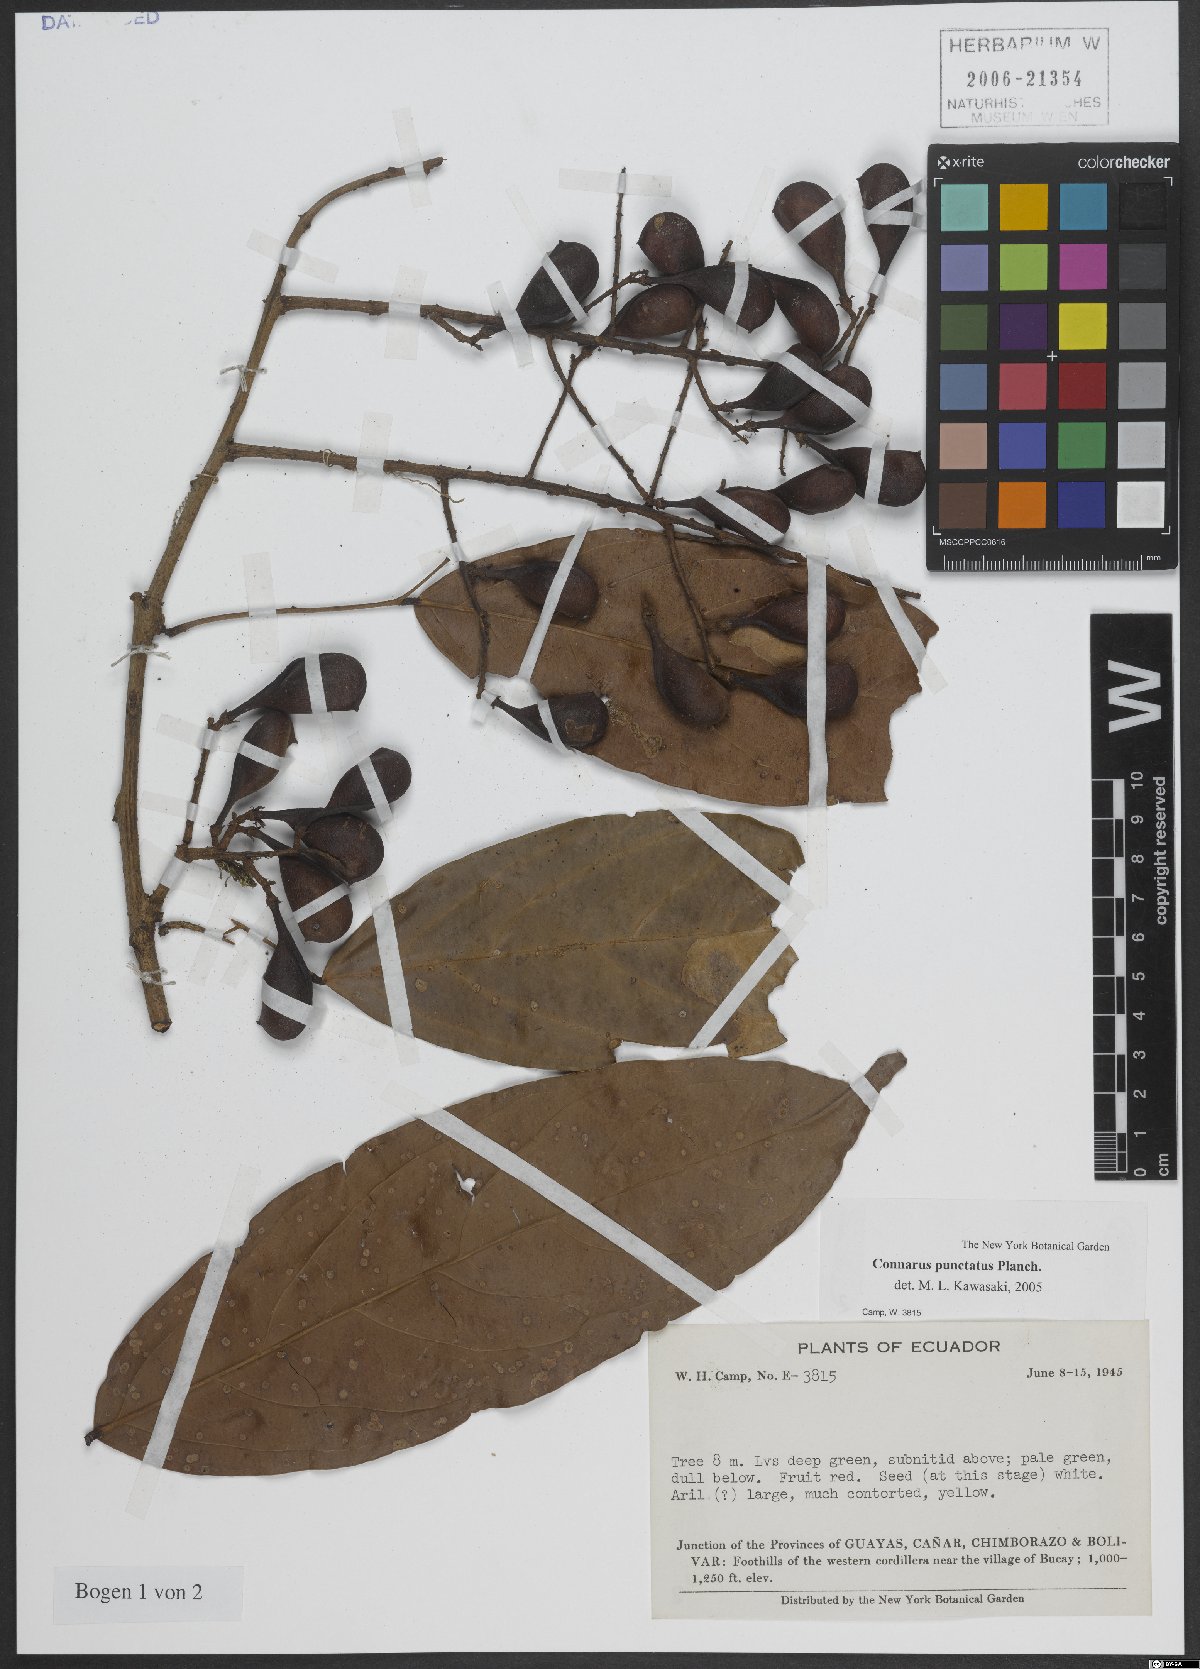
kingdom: Plantae
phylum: Tracheophyta
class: Magnoliopsida
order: Oxalidales
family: Connaraceae
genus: Connarus
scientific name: Connarus punctatus
